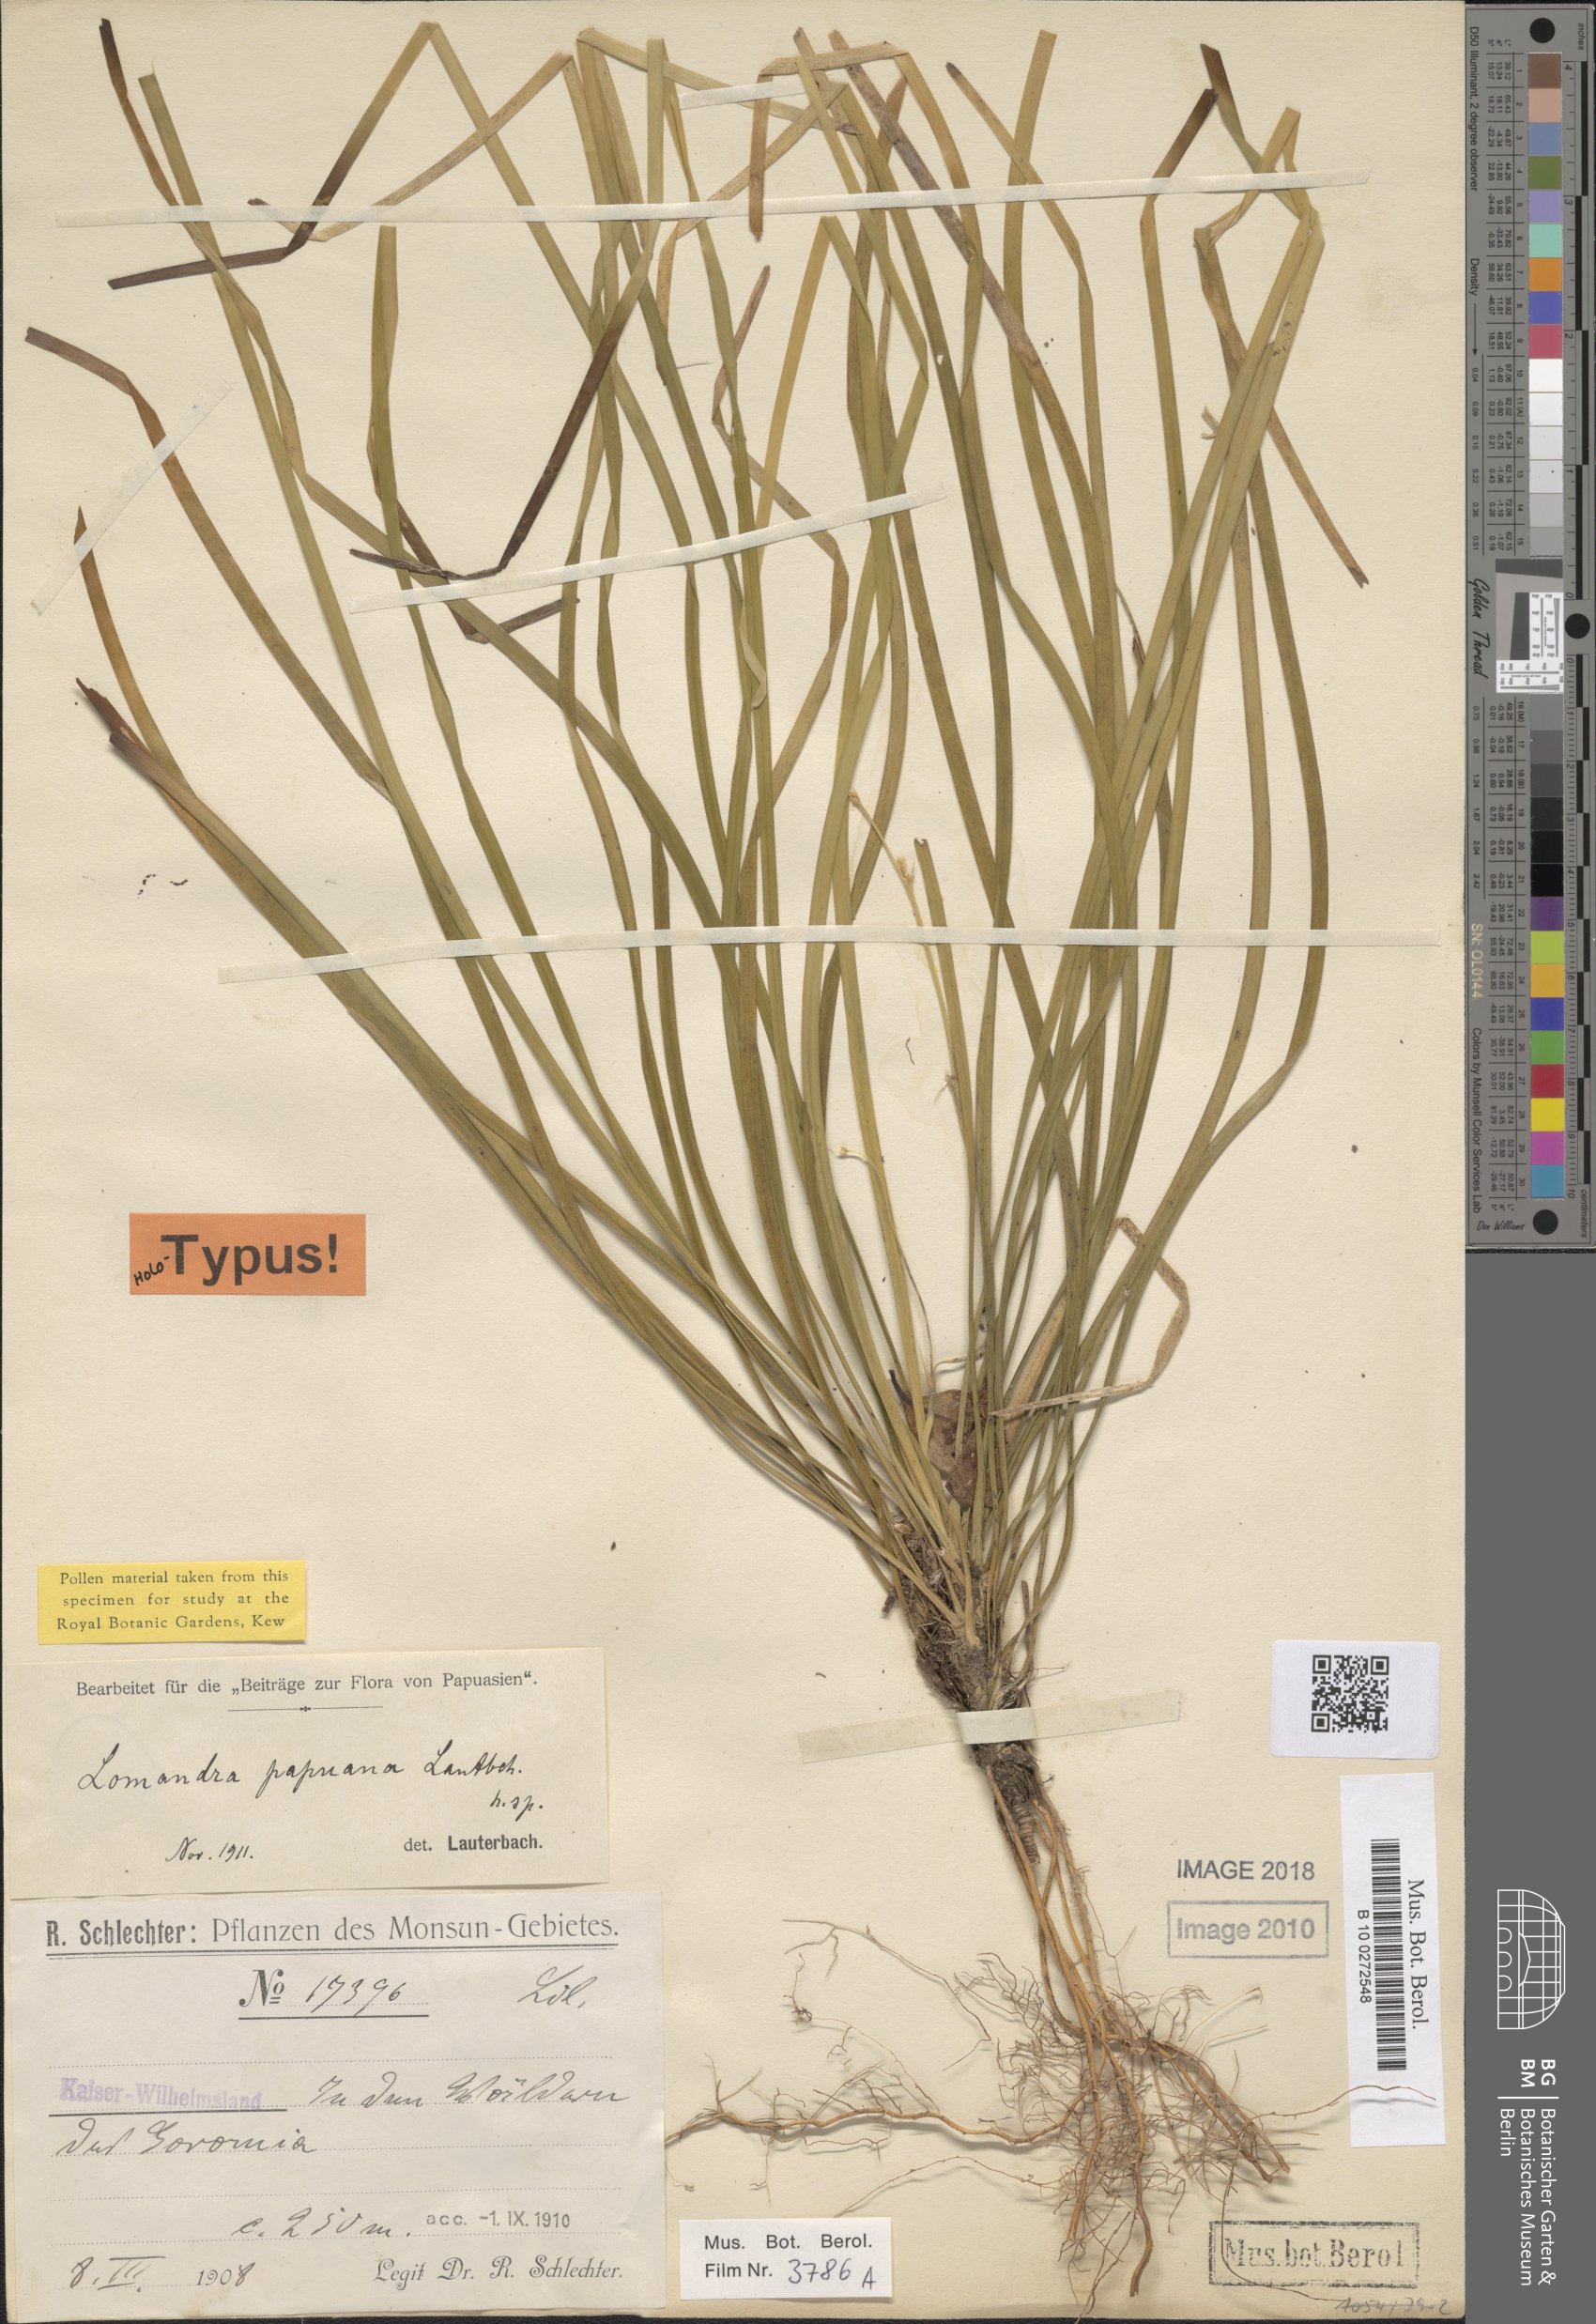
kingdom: Plantae
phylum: Tracheophyta
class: Liliopsida
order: Asparagales
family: Asparagaceae
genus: Romnalda
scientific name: Romnalda papuana
